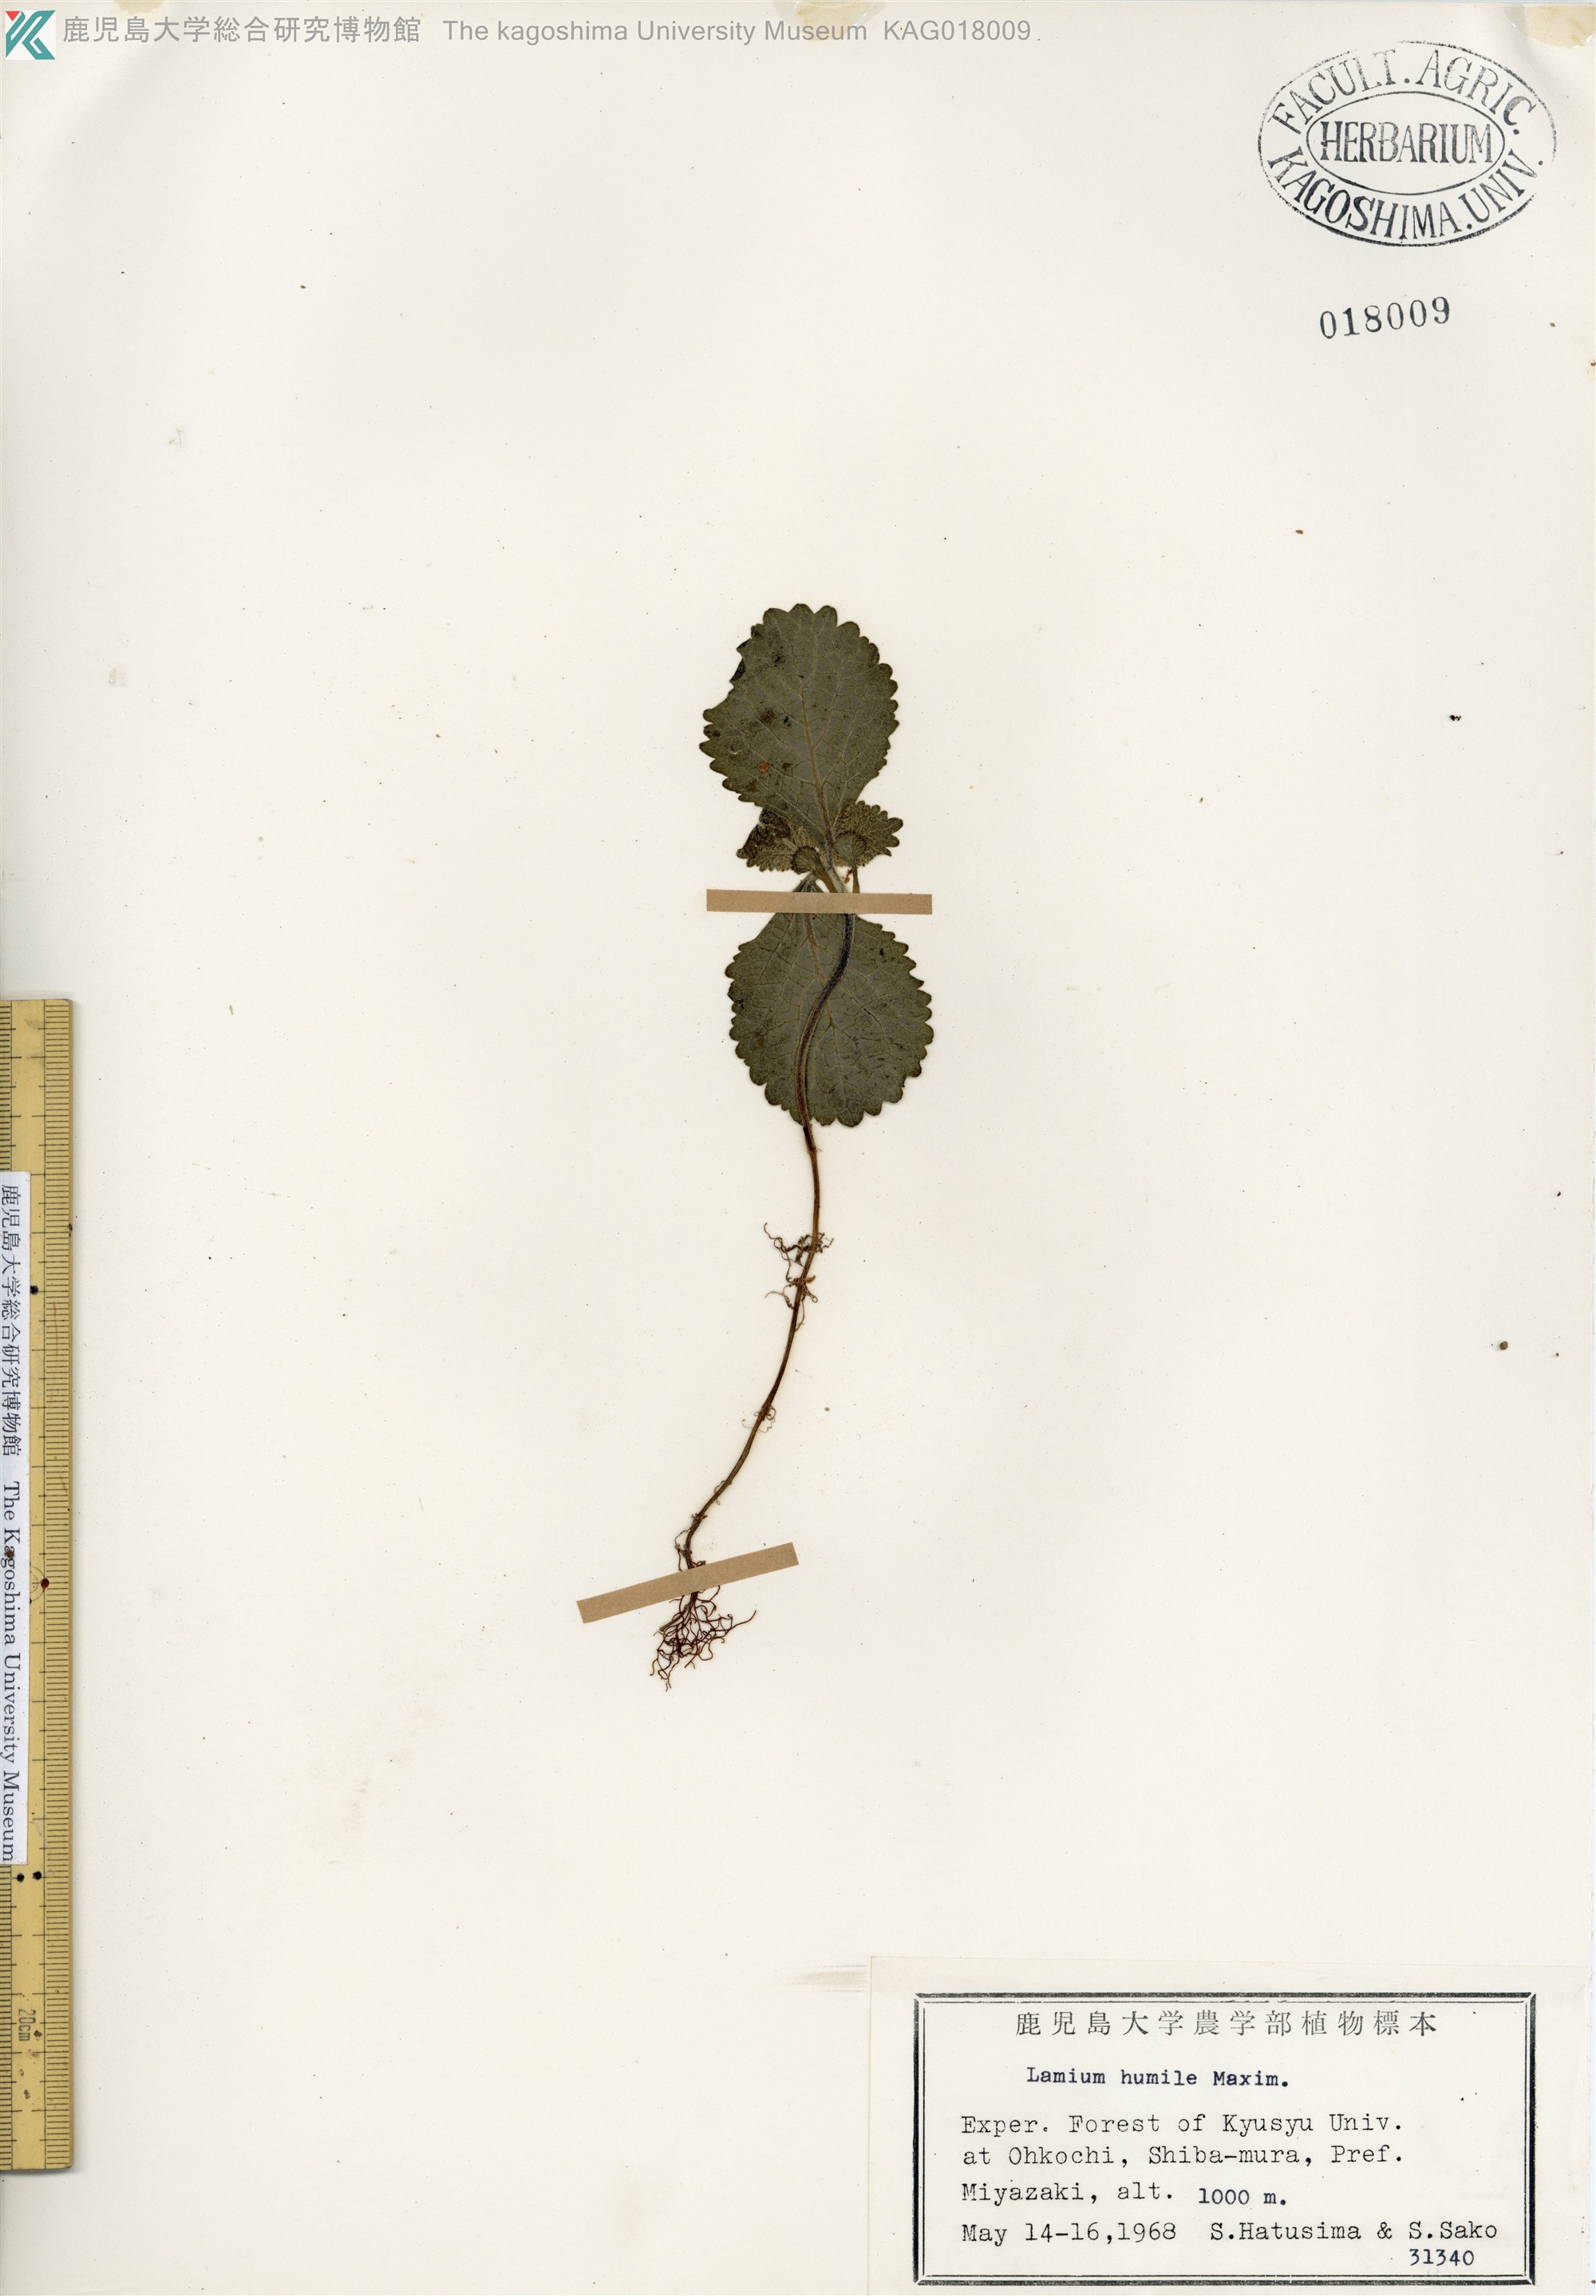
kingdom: Plantae
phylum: Tracheophyta
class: Magnoliopsida
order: Lamiales
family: Lamiaceae
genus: Ajugoides
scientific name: Ajugoides humilis
